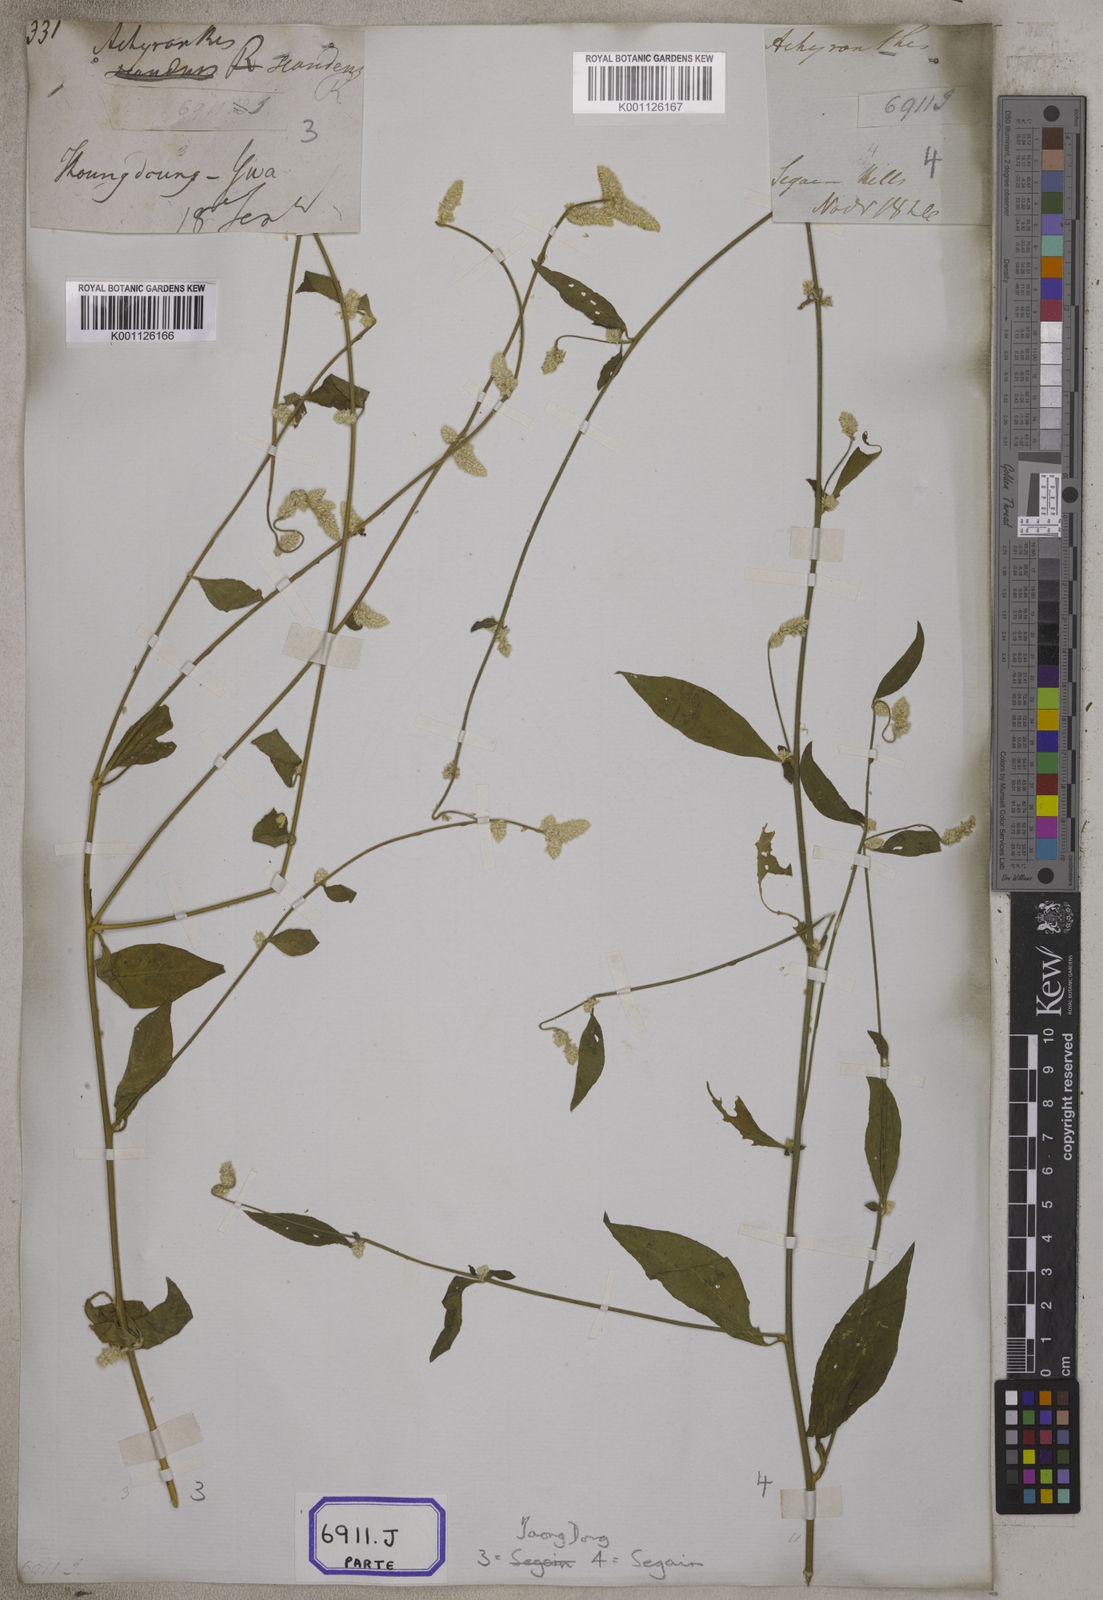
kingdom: Plantae
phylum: Tracheophyta
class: Magnoliopsida
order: Caryophyllales
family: Amaranthaceae
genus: Ouret
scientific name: Ouret sanguinolenta
